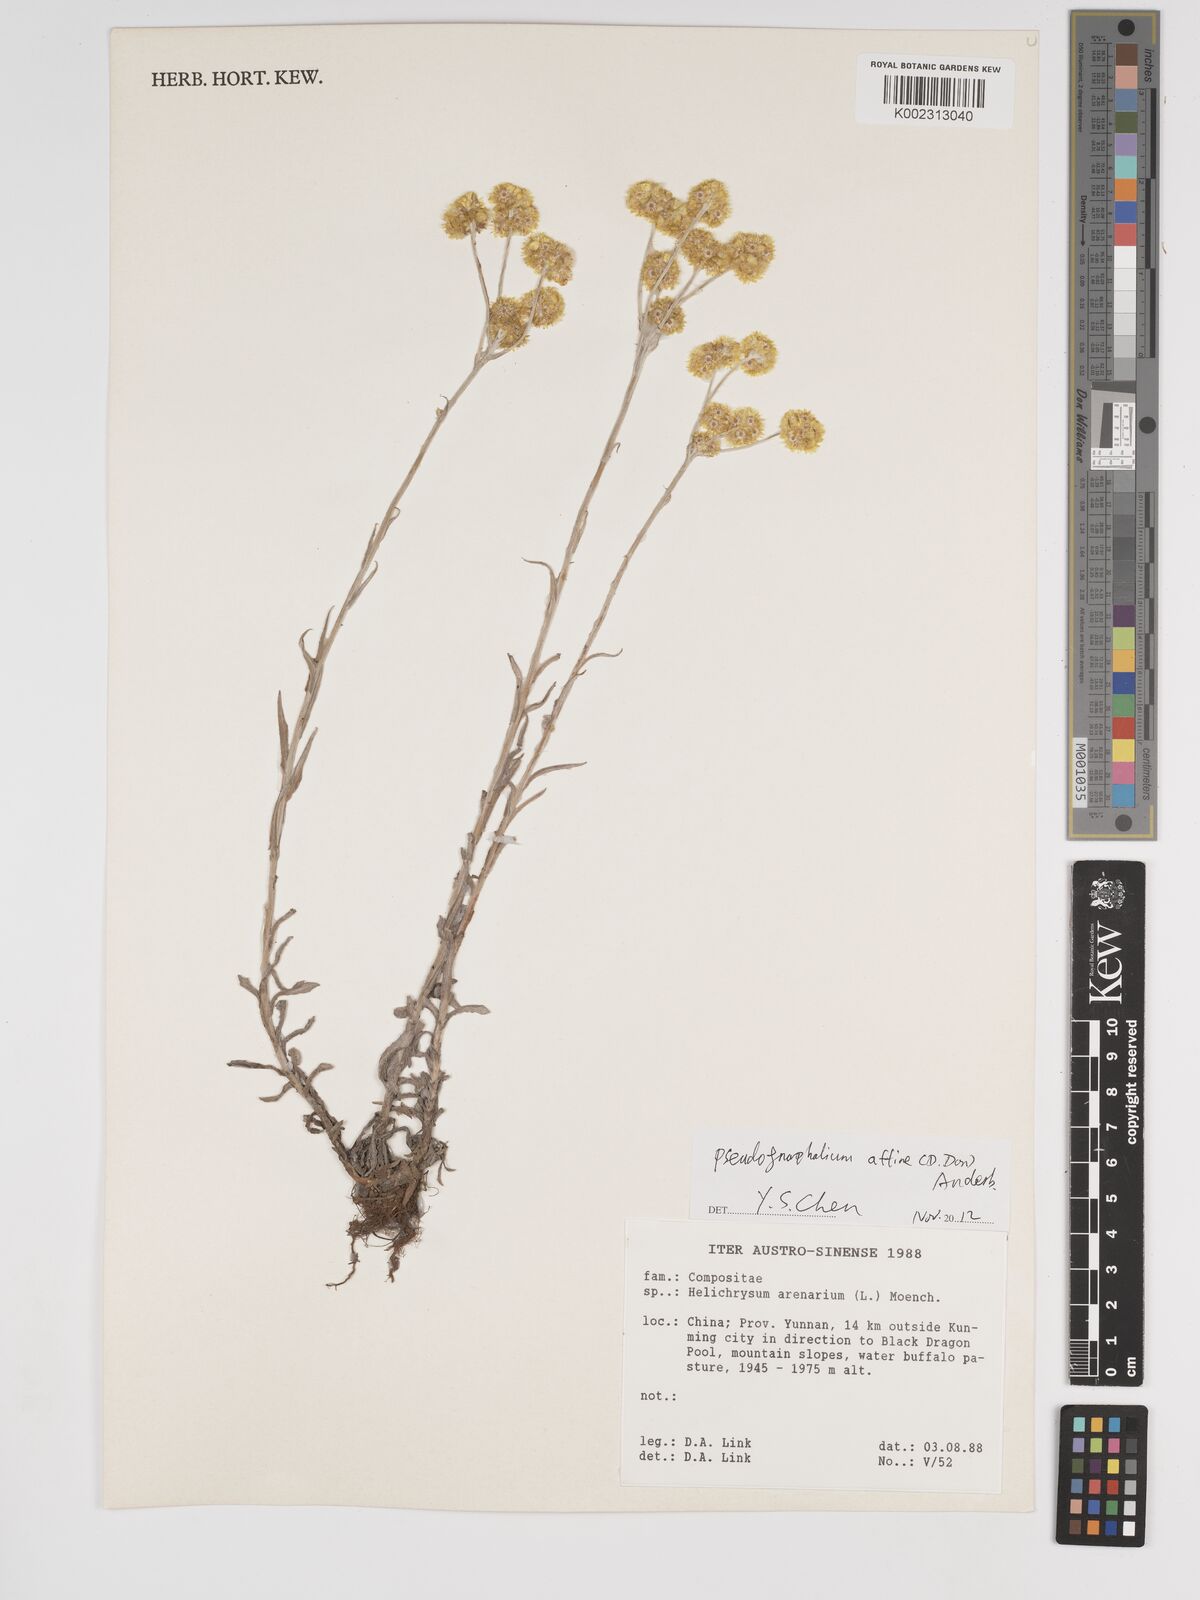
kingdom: Plantae
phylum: Tracheophyta
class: Magnoliopsida
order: Asterales
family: Asteraceae
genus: Helichrysum
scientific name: Helichrysum arenarium
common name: Strawflower
